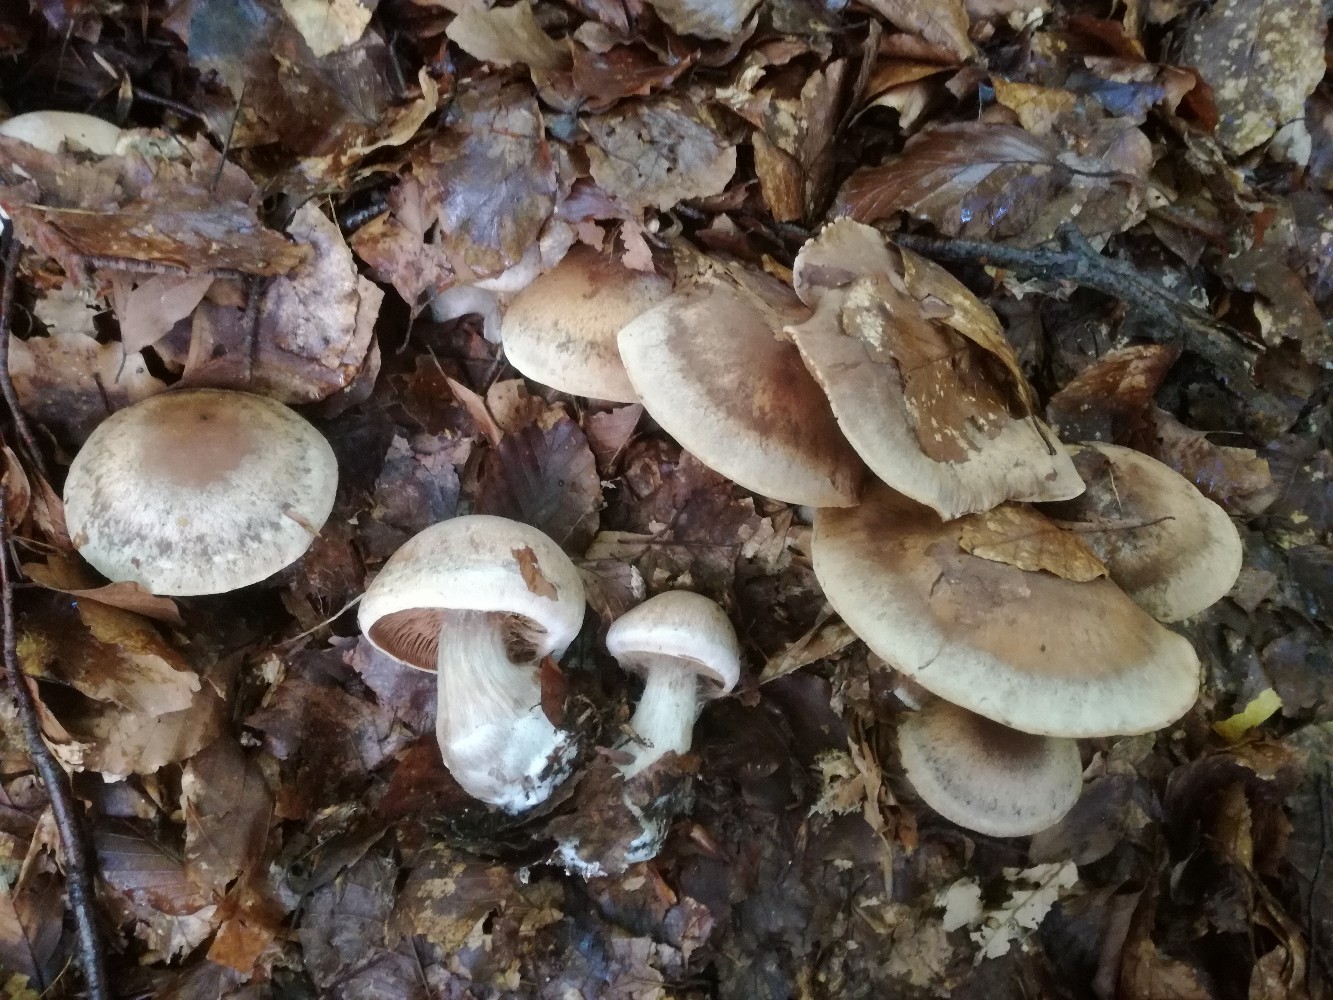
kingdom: Fungi
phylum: Basidiomycota
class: Agaricomycetes
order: Agaricales
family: Cortinariaceae
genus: Cortinarius
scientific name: Cortinarius aprinus
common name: vildsvine-slørhat
